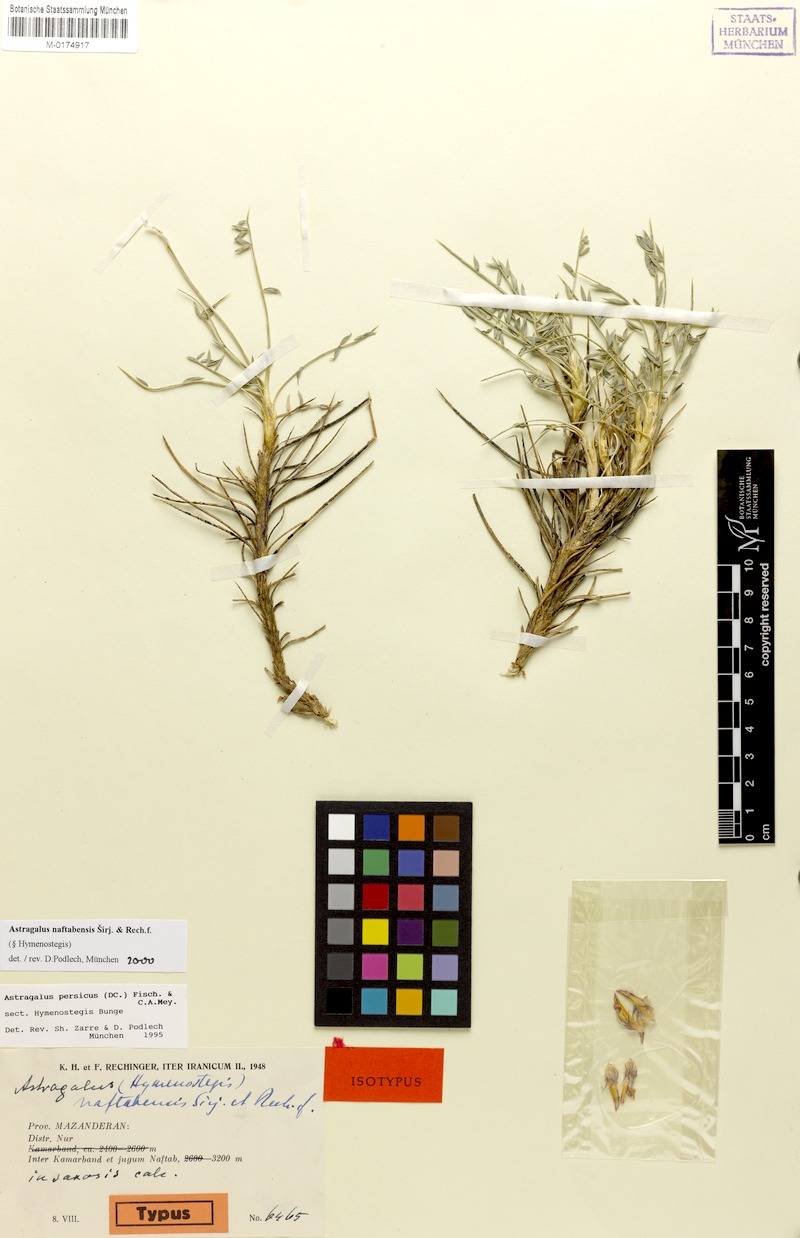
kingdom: Plantae
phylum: Tracheophyta
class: Magnoliopsida
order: Fabales
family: Fabaceae
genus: Astragalus
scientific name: Astragalus naftabensis
